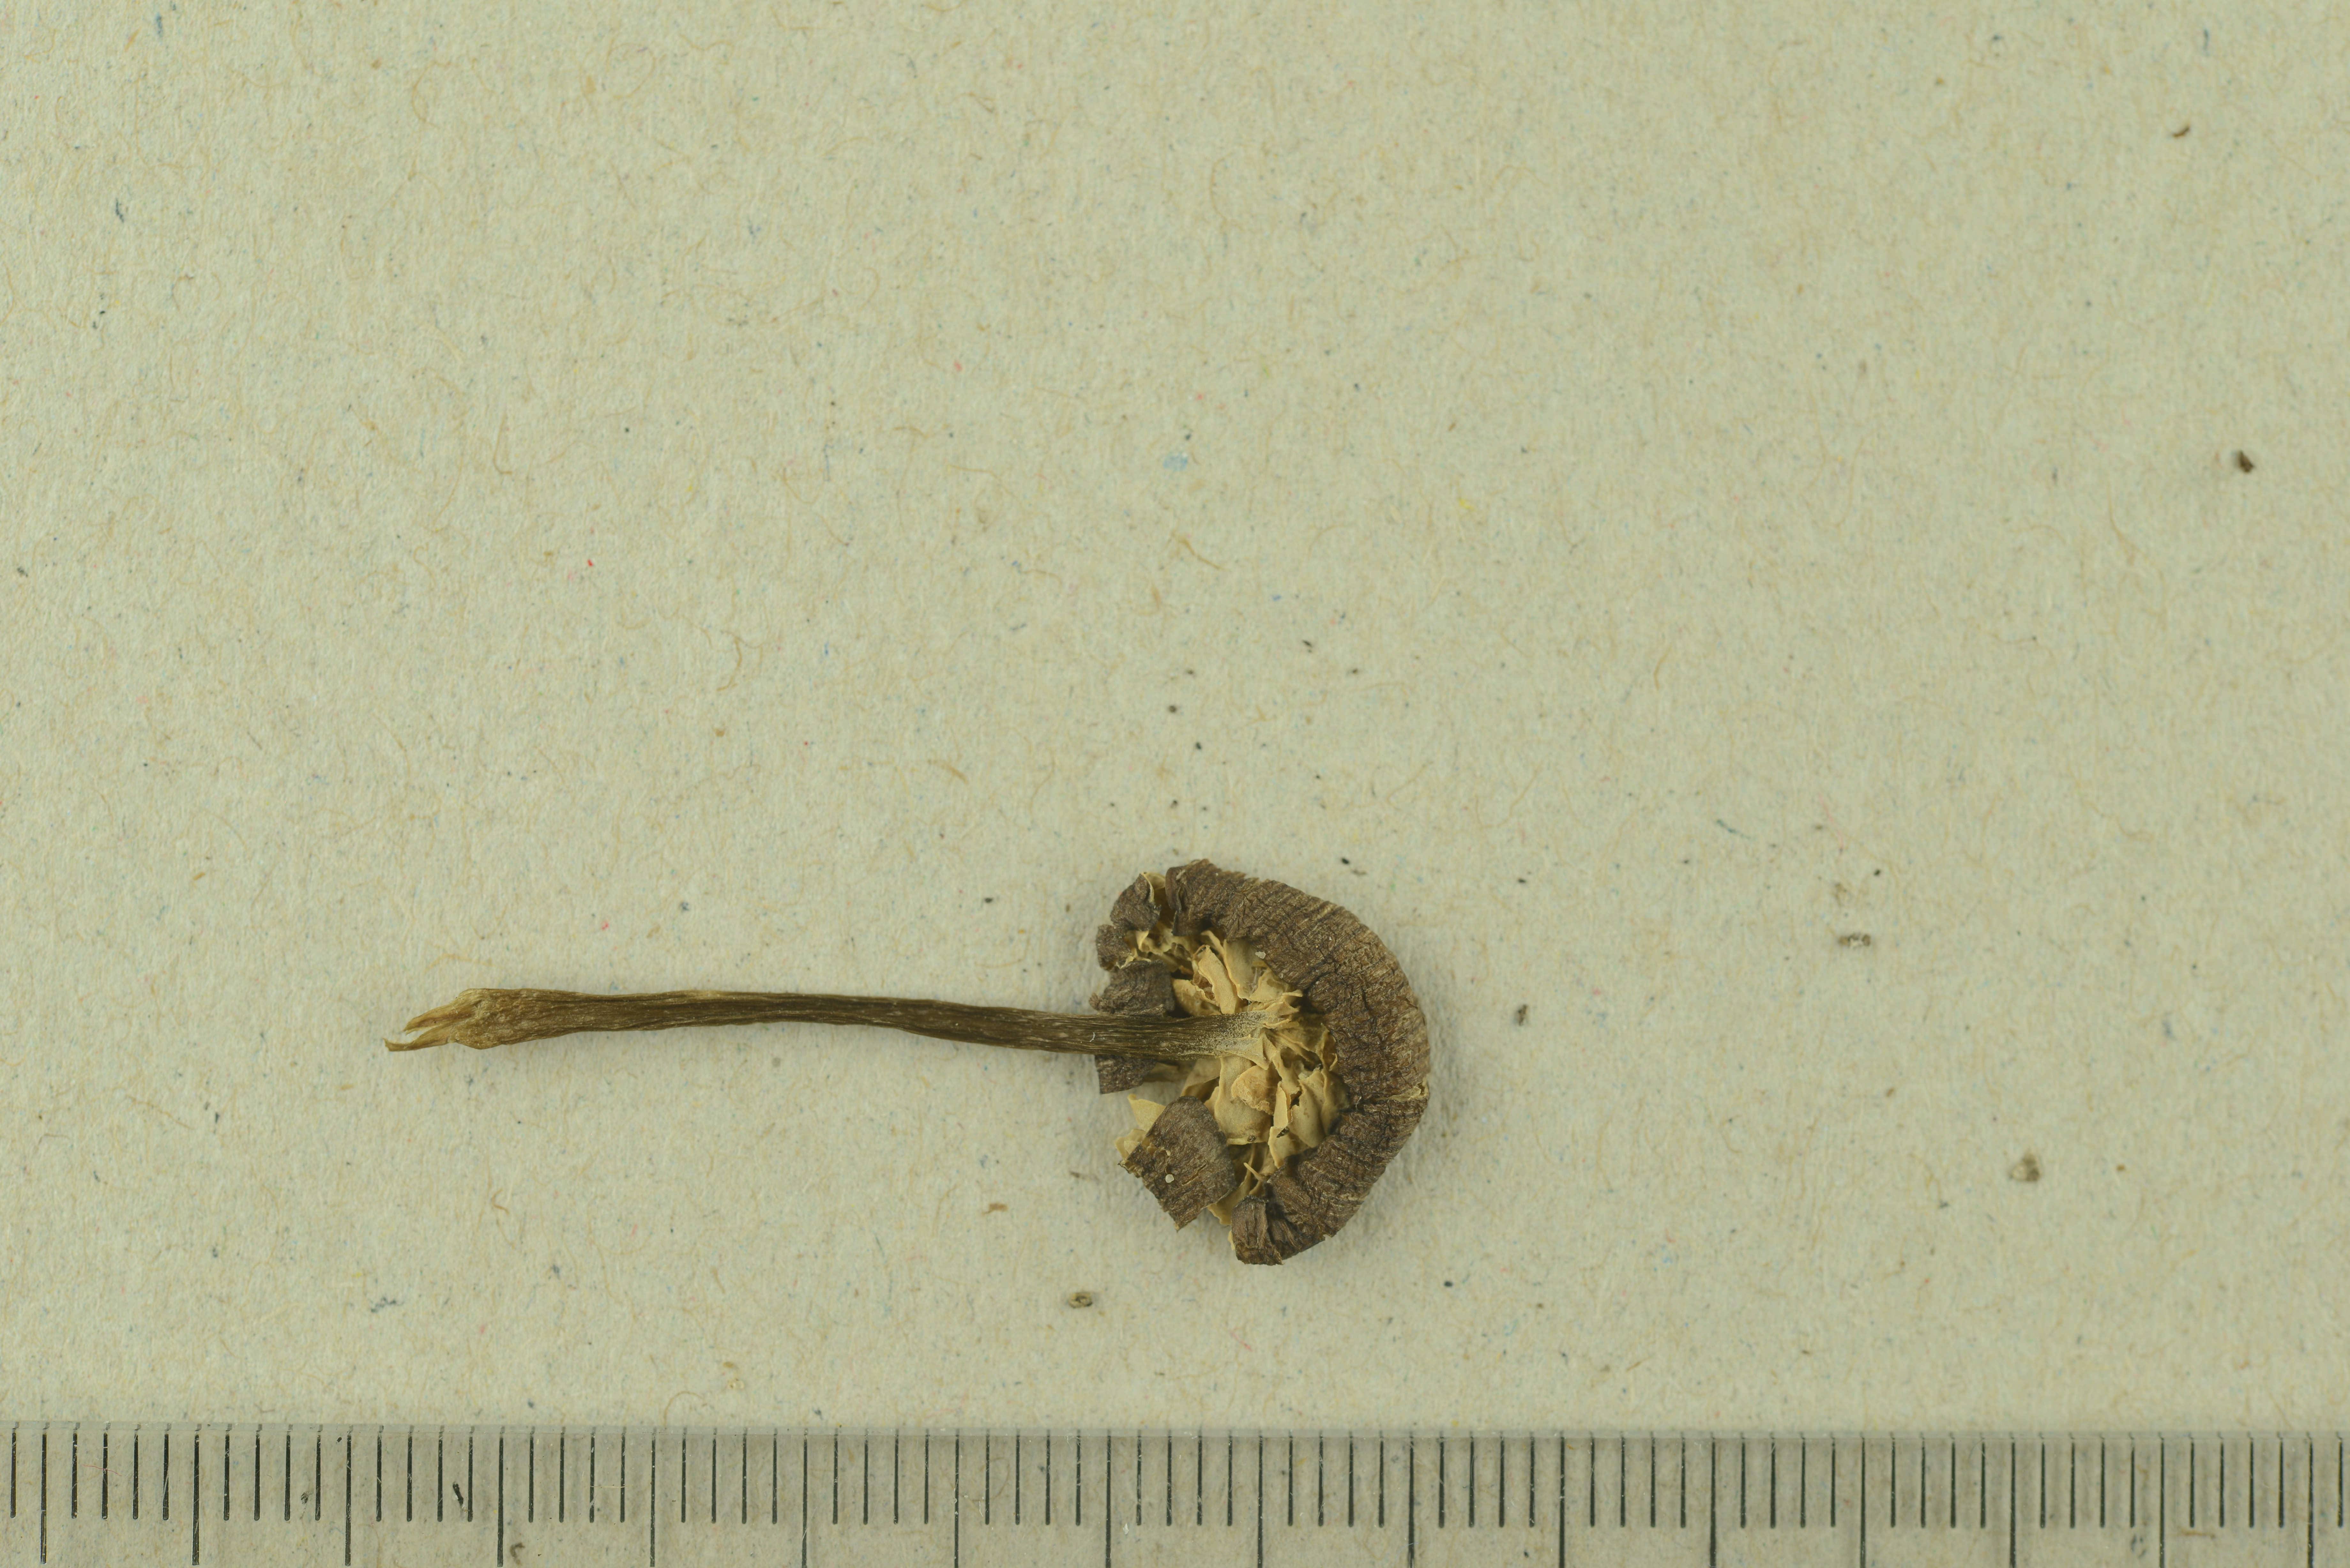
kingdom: Fungi
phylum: Basidiomycota
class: Agaricomycetes
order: Agaricales
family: Entolomataceae
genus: Entoloma
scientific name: Entoloma lividocyanulum
